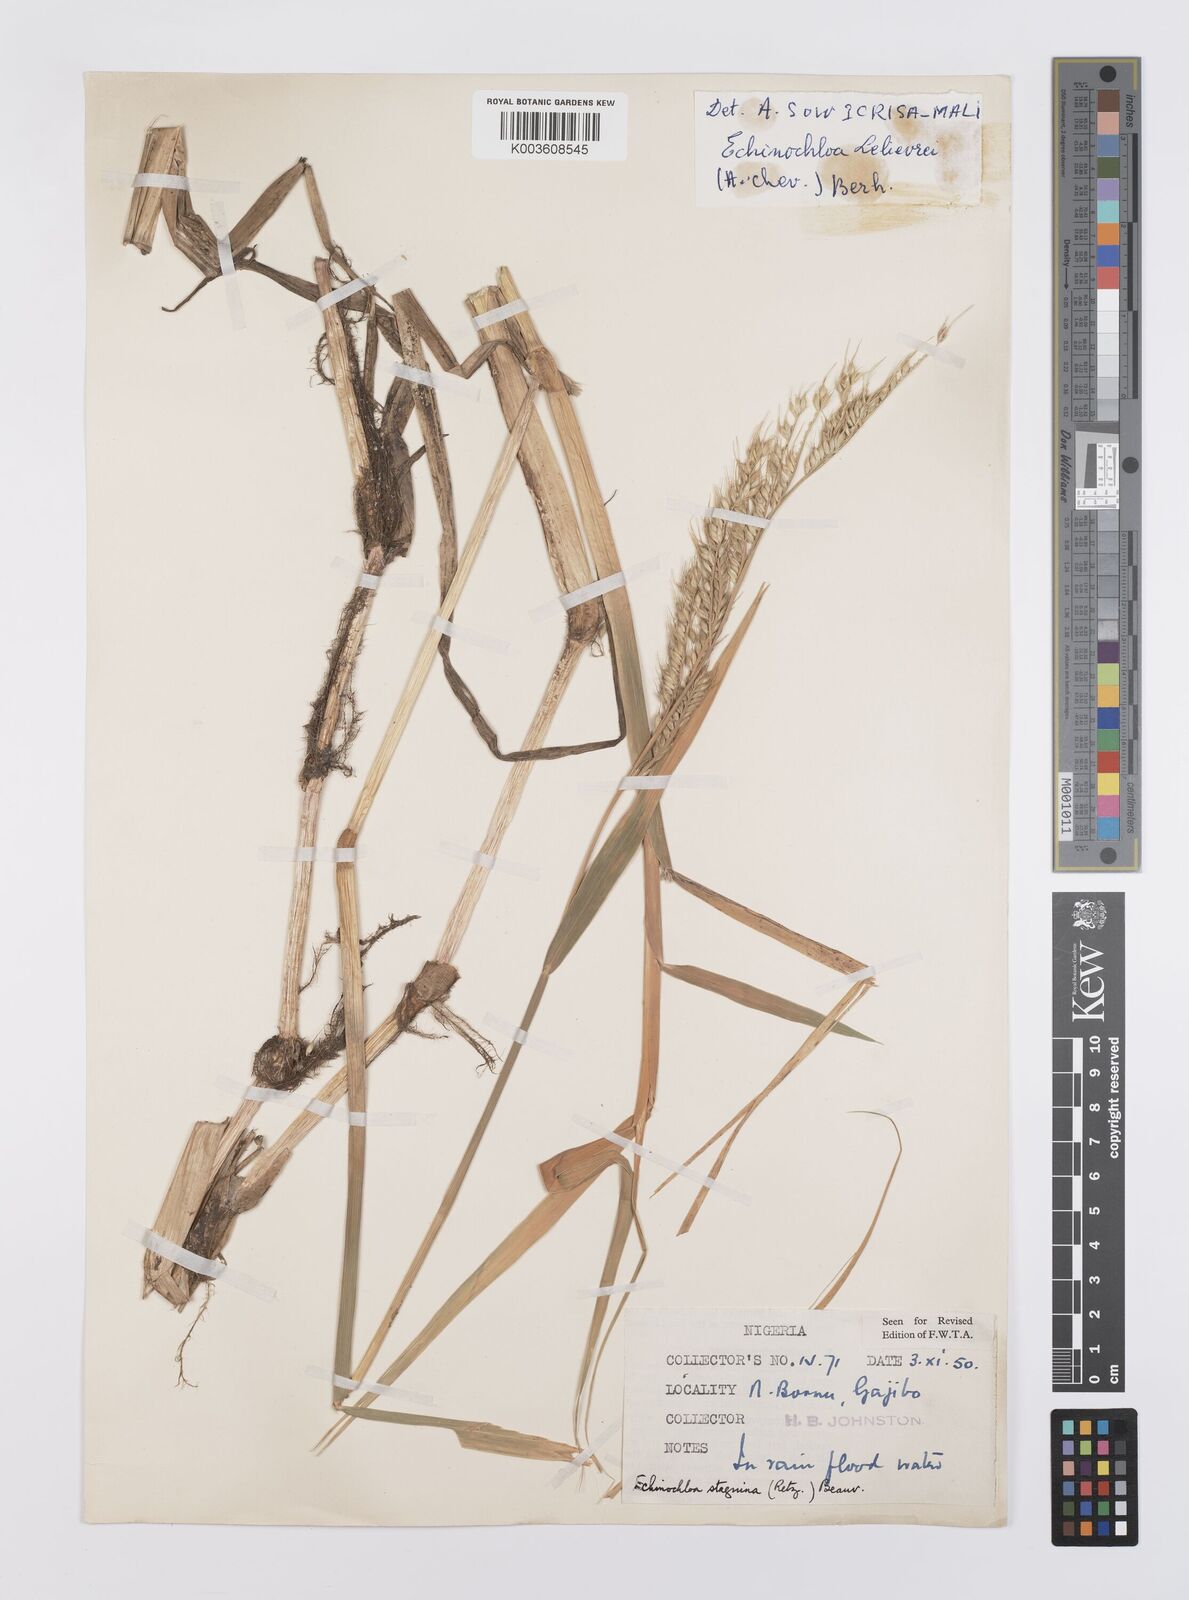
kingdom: Plantae
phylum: Tracheophyta
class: Liliopsida
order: Poales
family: Poaceae
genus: Echinochloa
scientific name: Echinochloa stagnina
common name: Burgu grass
